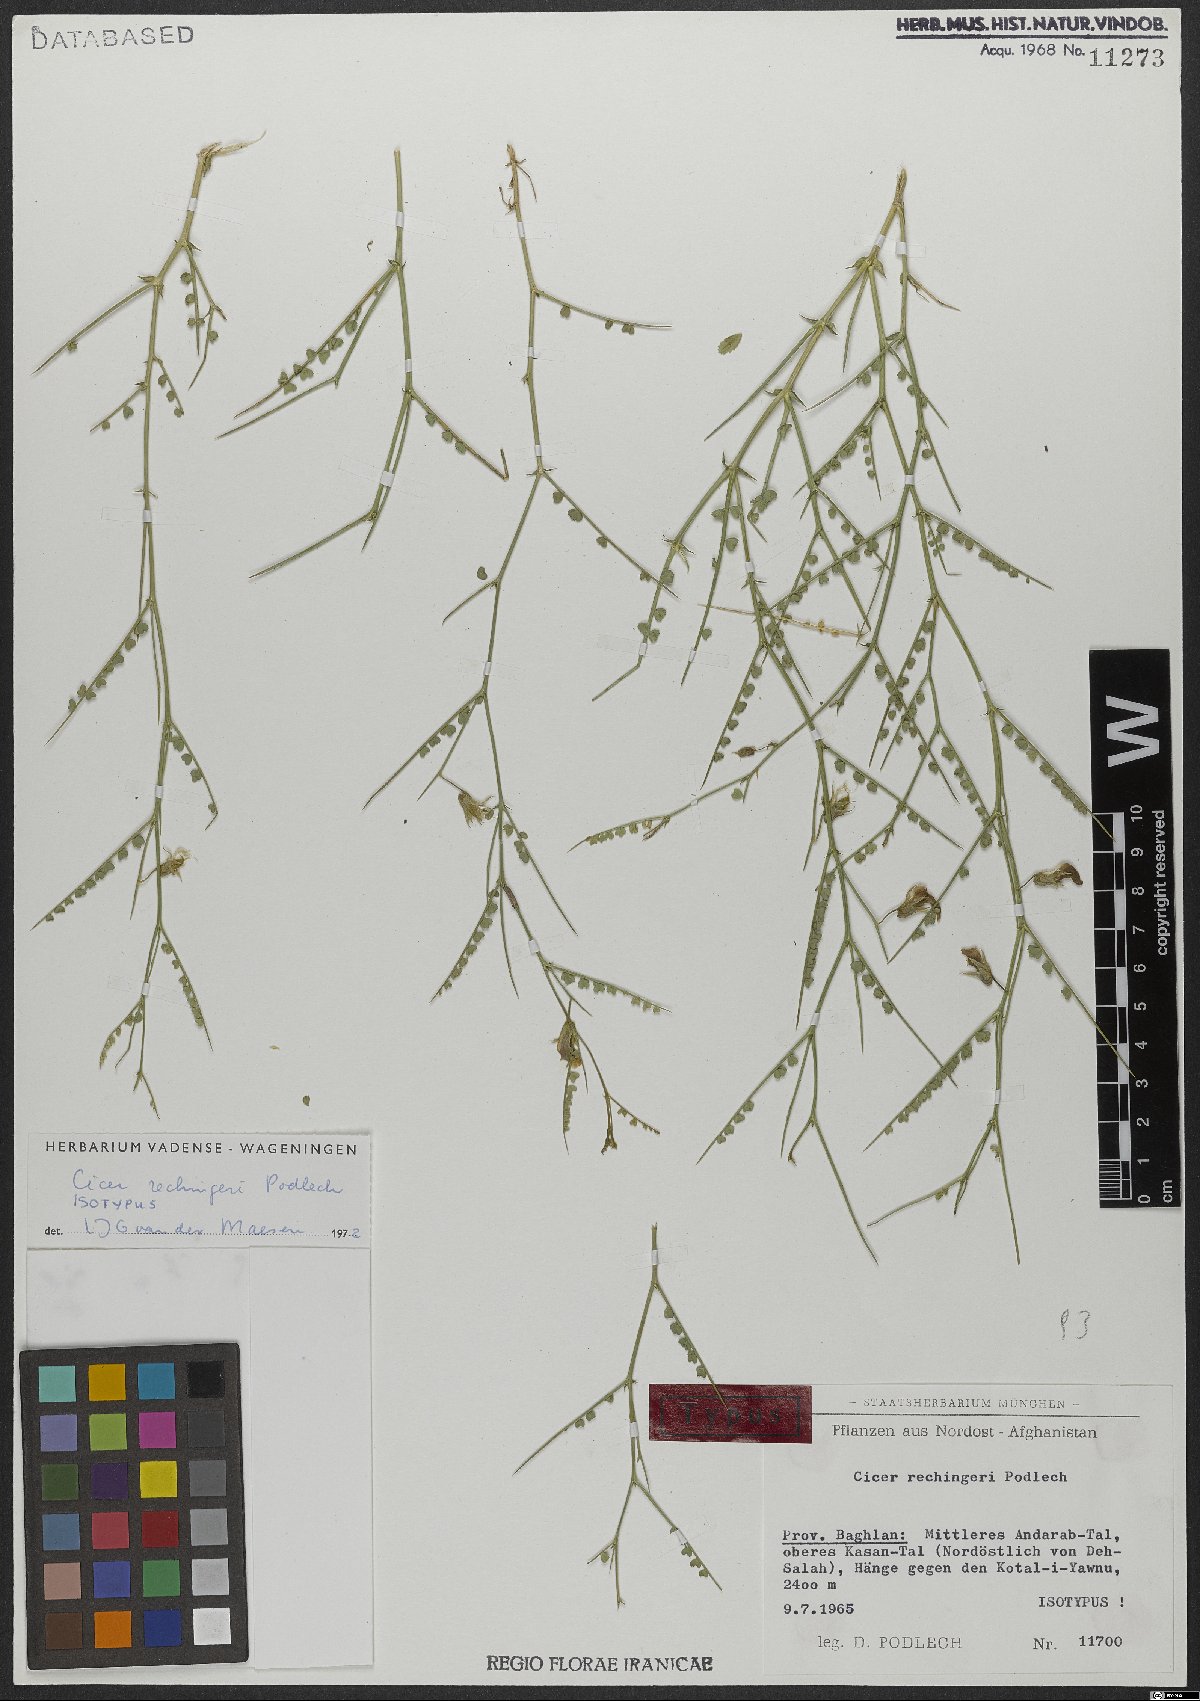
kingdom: Plantae
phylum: Tracheophyta
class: Magnoliopsida
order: Fabales
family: Fabaceae
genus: Cicer
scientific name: Cicer rechingeri
